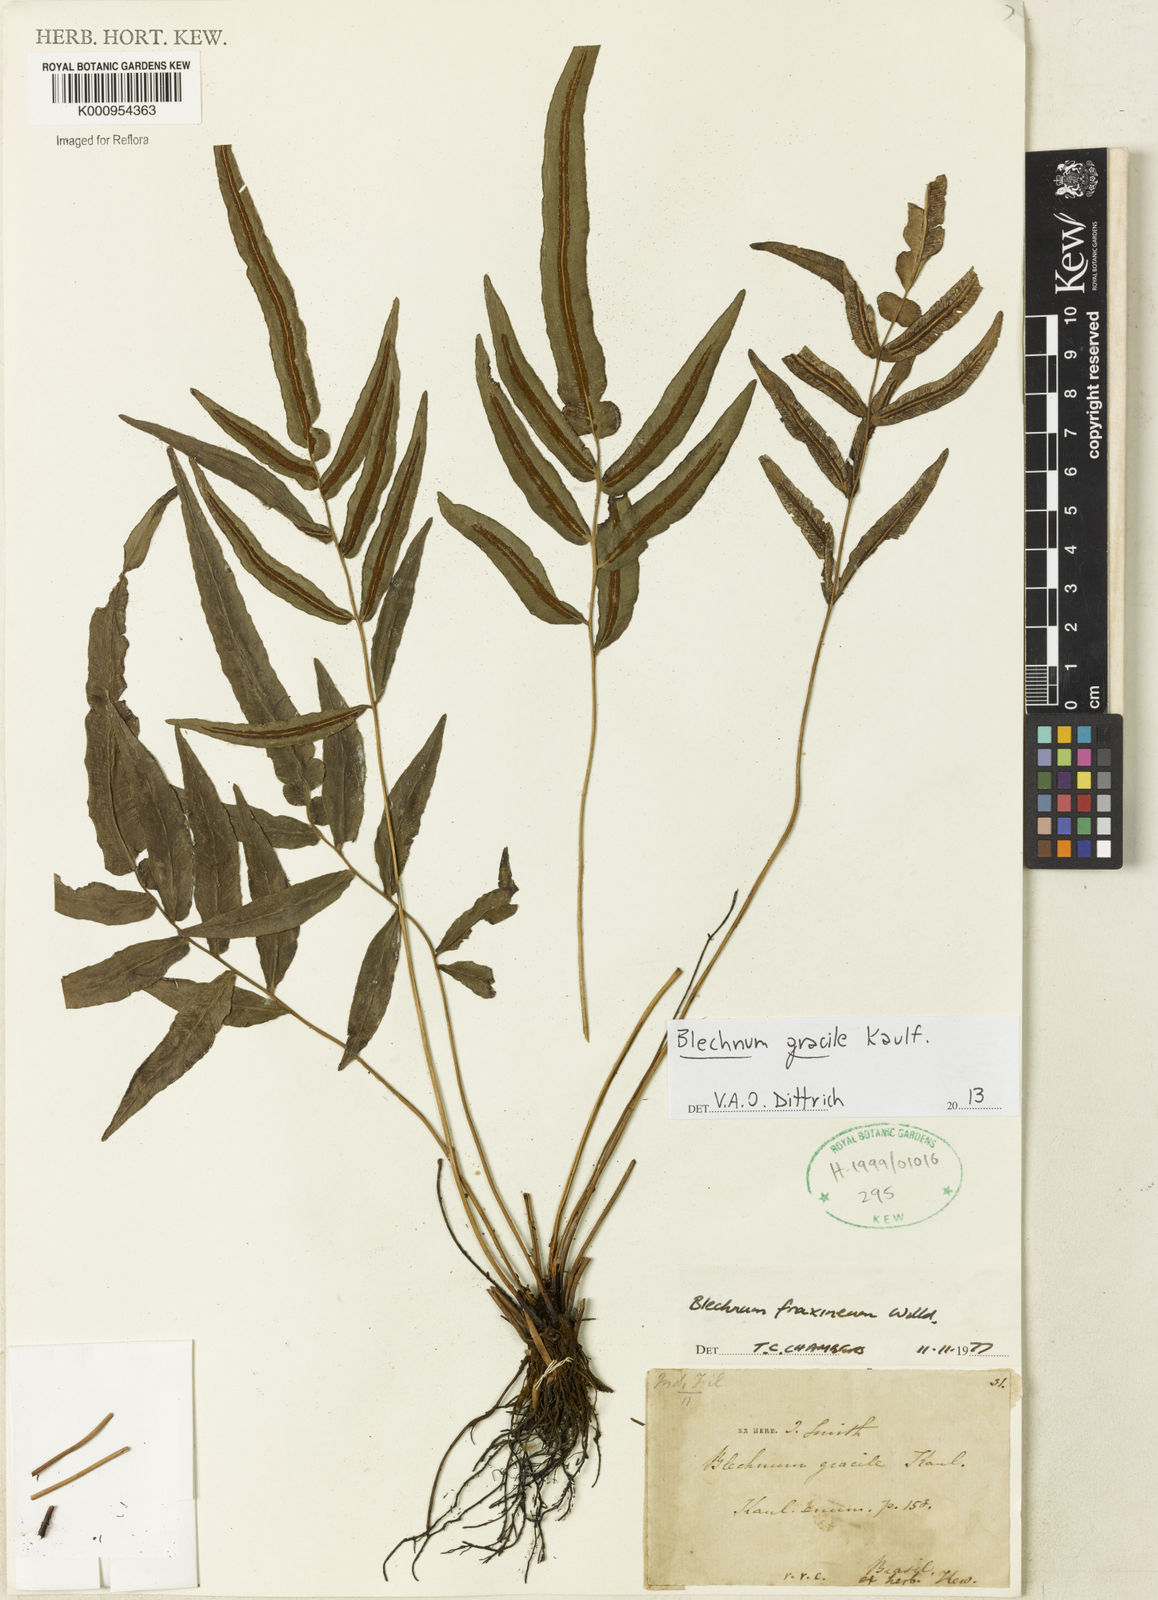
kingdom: Plantae
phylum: Tracheophyta
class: Polypodiopsida
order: Polypodiales
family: Blechnaceae
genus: Blechnum
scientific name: Blechnum gracile
